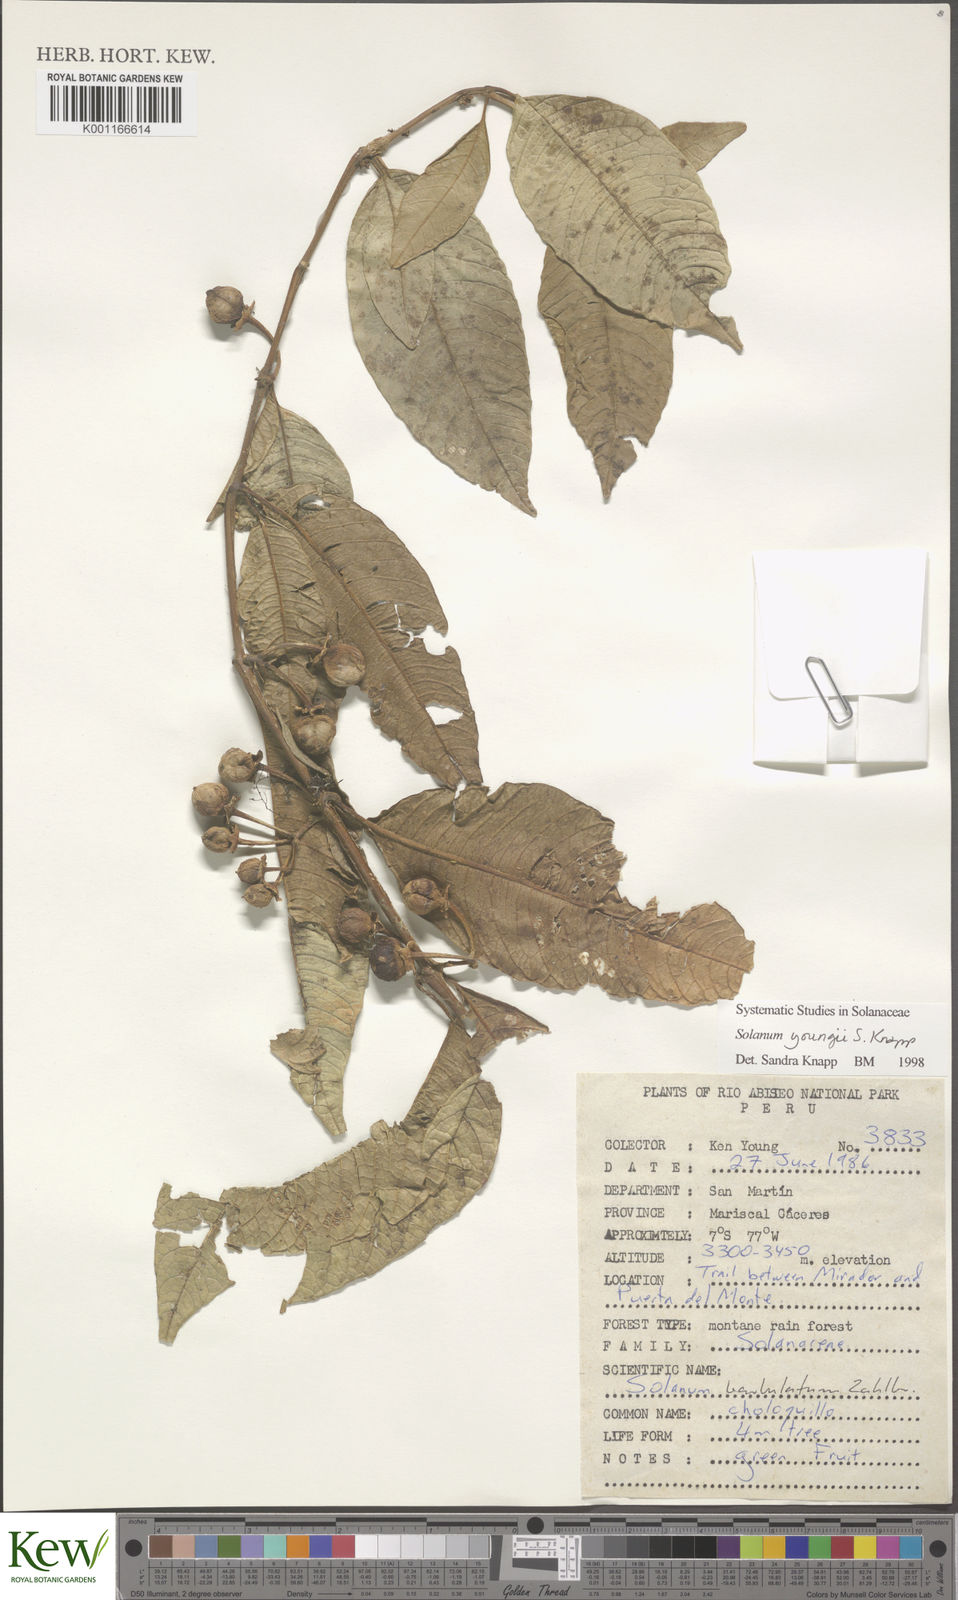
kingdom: Plantae
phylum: Tracheophyta
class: Magnoliopsida
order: Solanales
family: Solanaceae
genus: Solanum
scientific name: Solanum youngii
